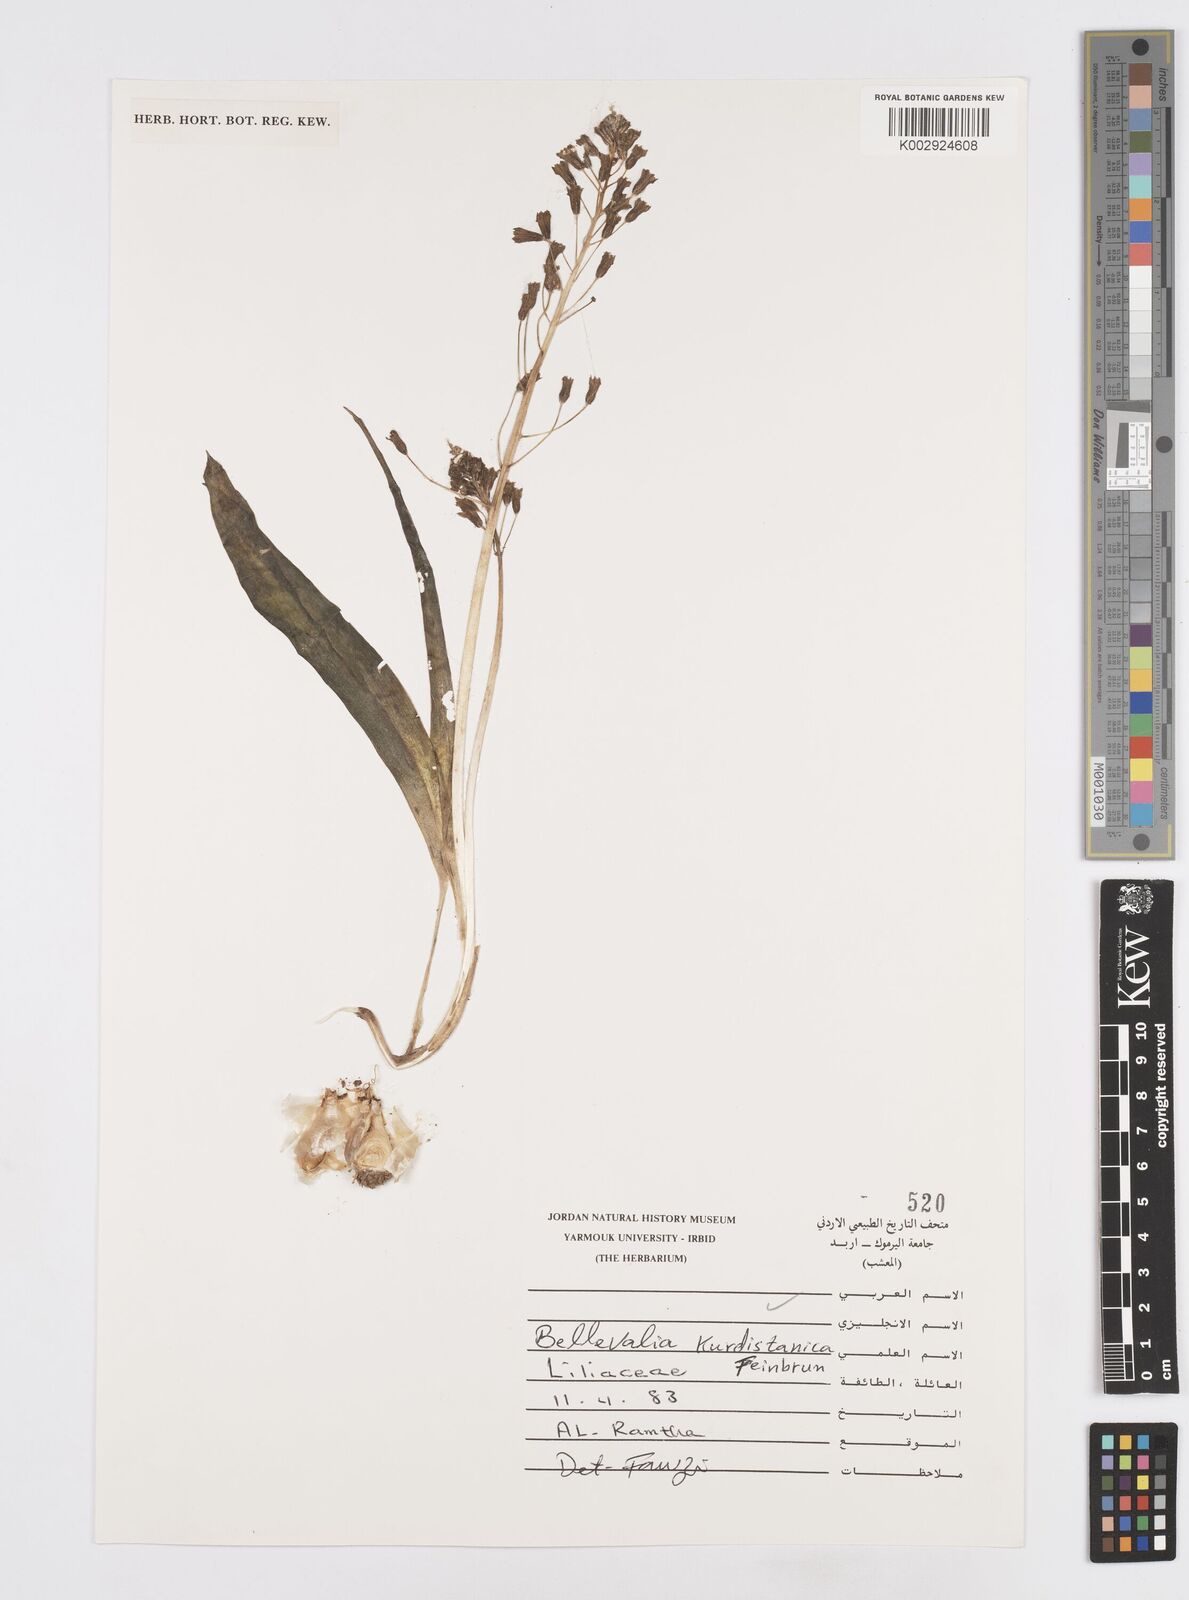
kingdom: Plantae
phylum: Tracheophyta
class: Liliopsida
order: Asparagales
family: Asparagaceae
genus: Bellevalia
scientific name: Bellevalia kurdistanica
